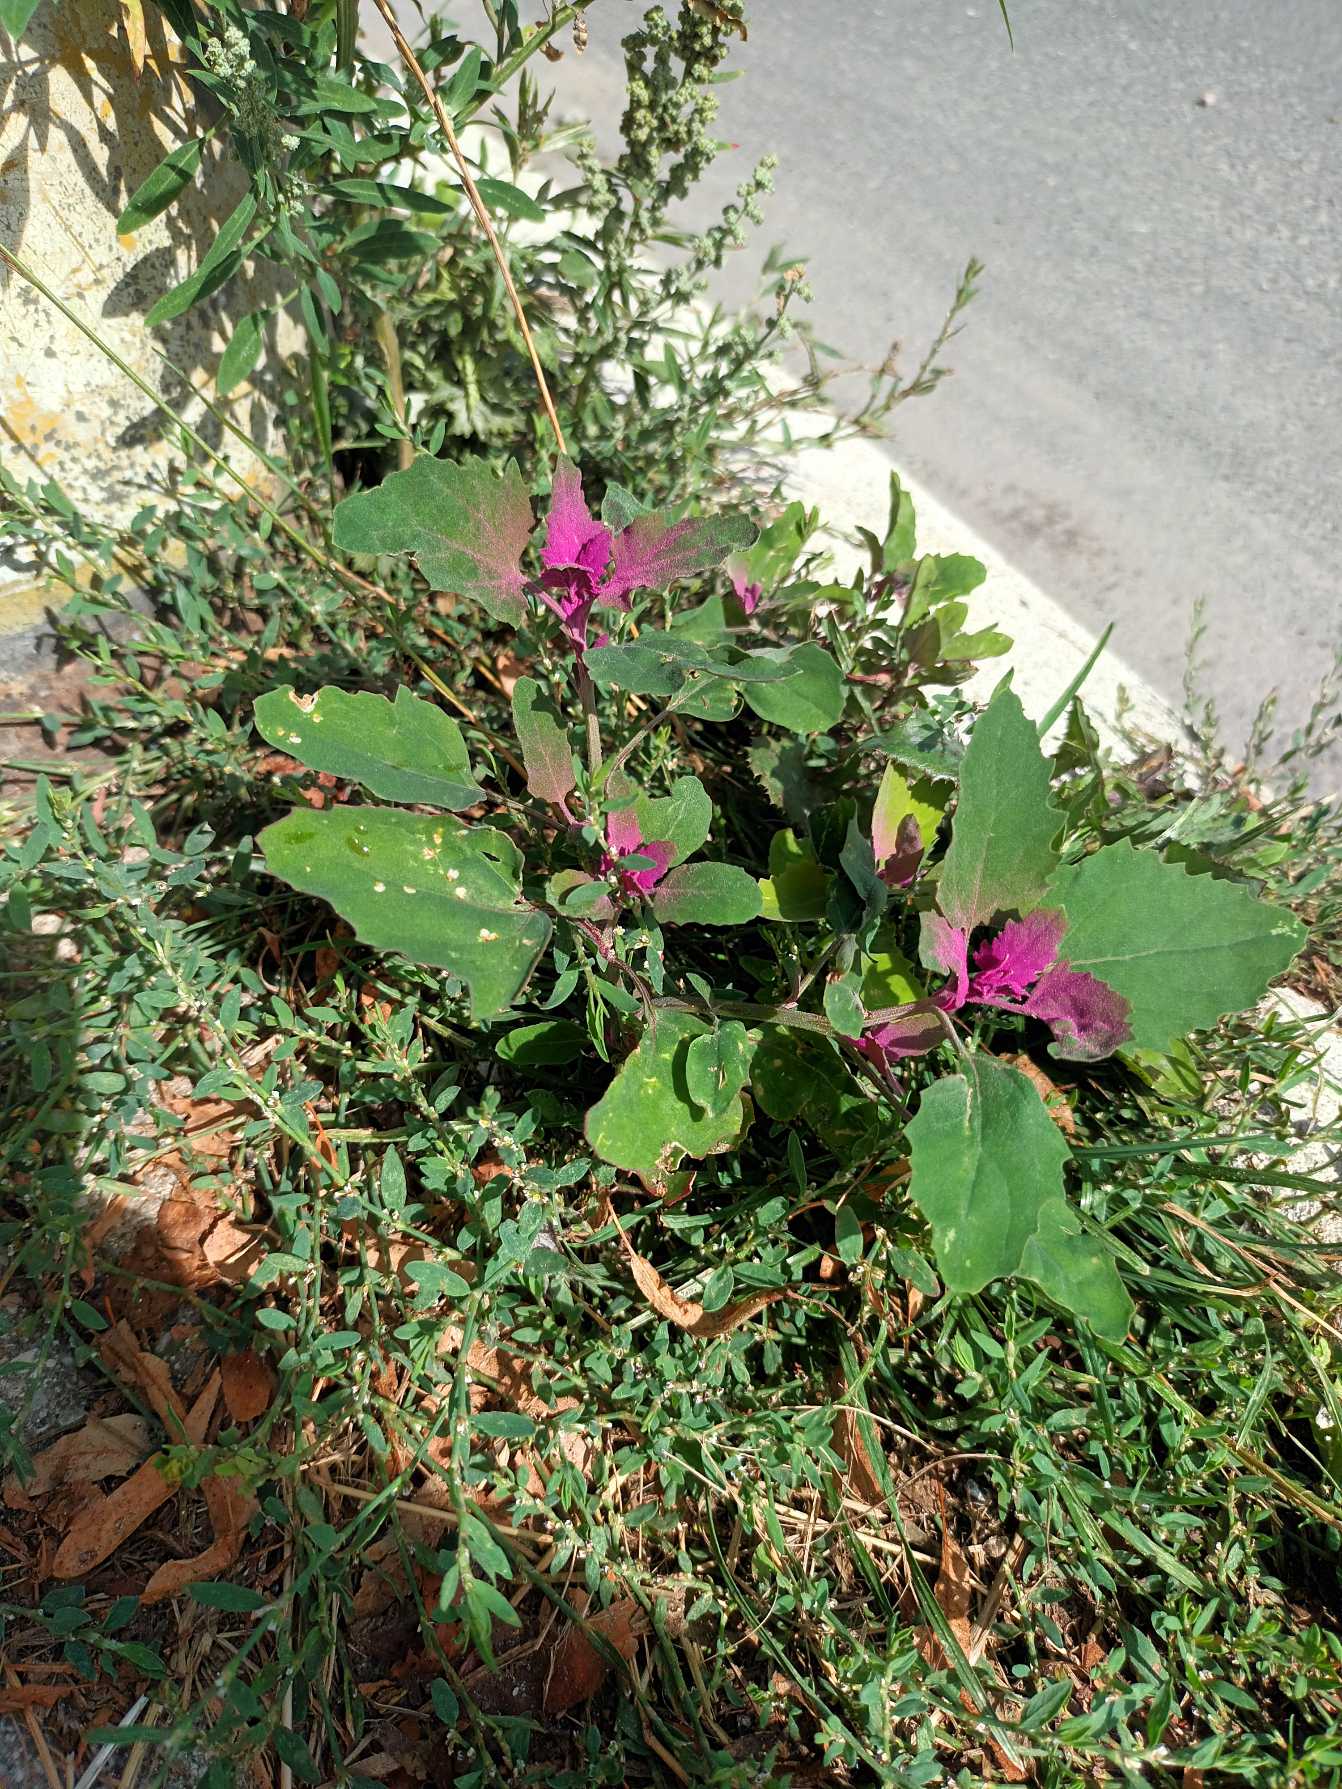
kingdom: Plantae
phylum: Tracheophyta
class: Magnoliopsida
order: Caryophyllales
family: Amaranthaceae
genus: Chenopodium
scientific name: Chenopodium giganteum
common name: Kæmpe-gåsefod
